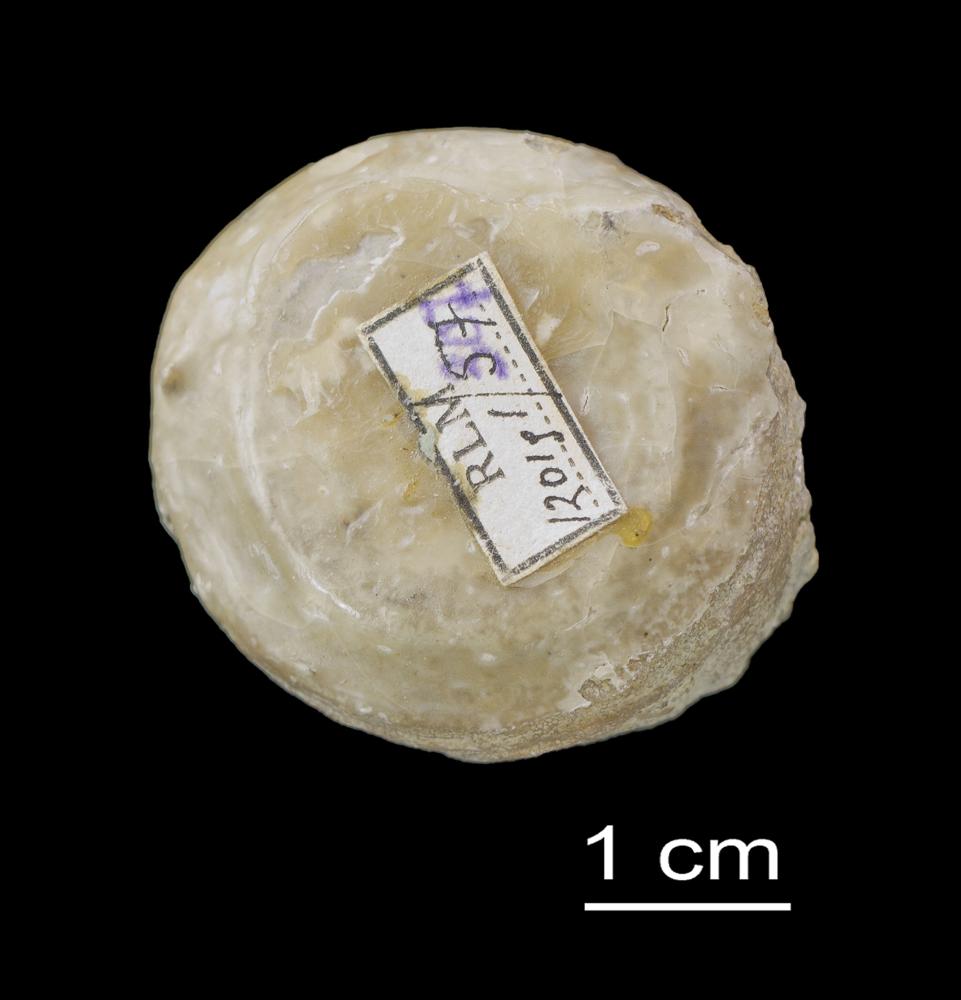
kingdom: Animalia
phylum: Bryozoa
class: Stenolaemata
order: Trepostomatida
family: Dianulitidae
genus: Dianulites
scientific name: Dianulites petropolitanus
